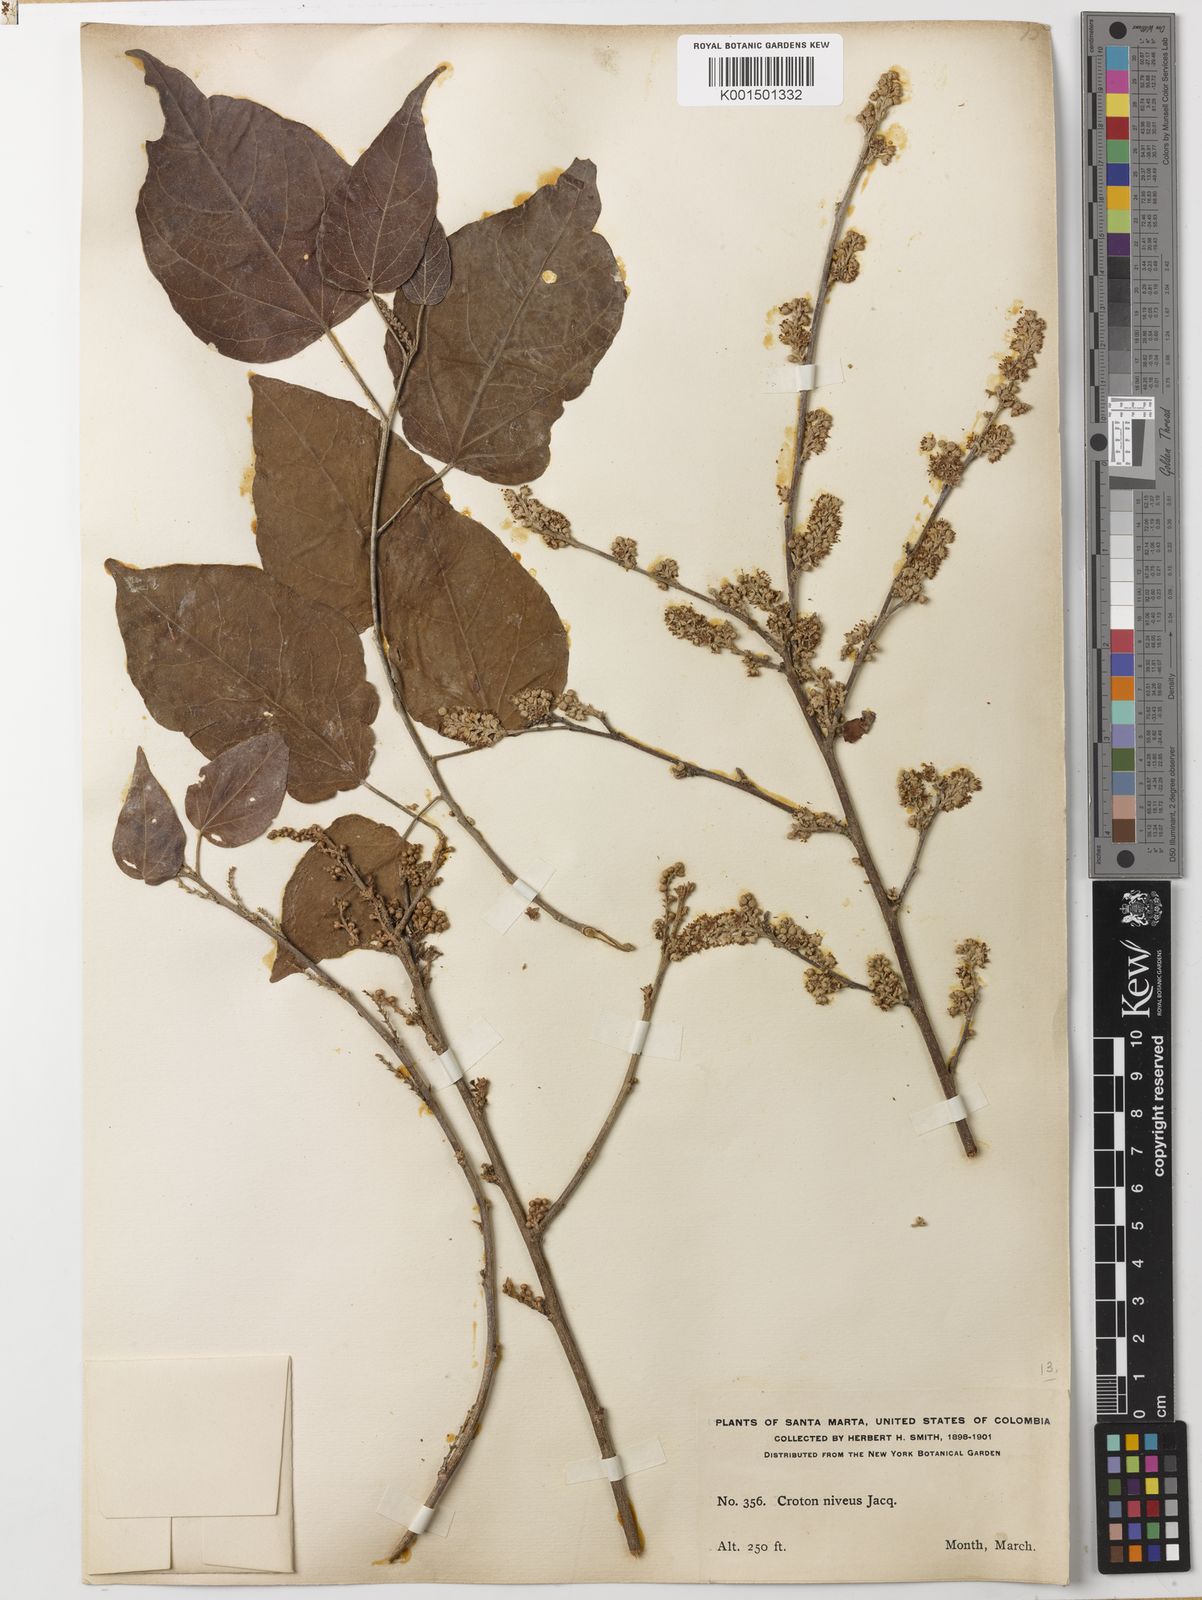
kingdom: Plantae
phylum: Tracheophyta
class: Magnoliopsida
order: Malpighiales
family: Euphorbiaceae
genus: Croton
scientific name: Croton niveus
